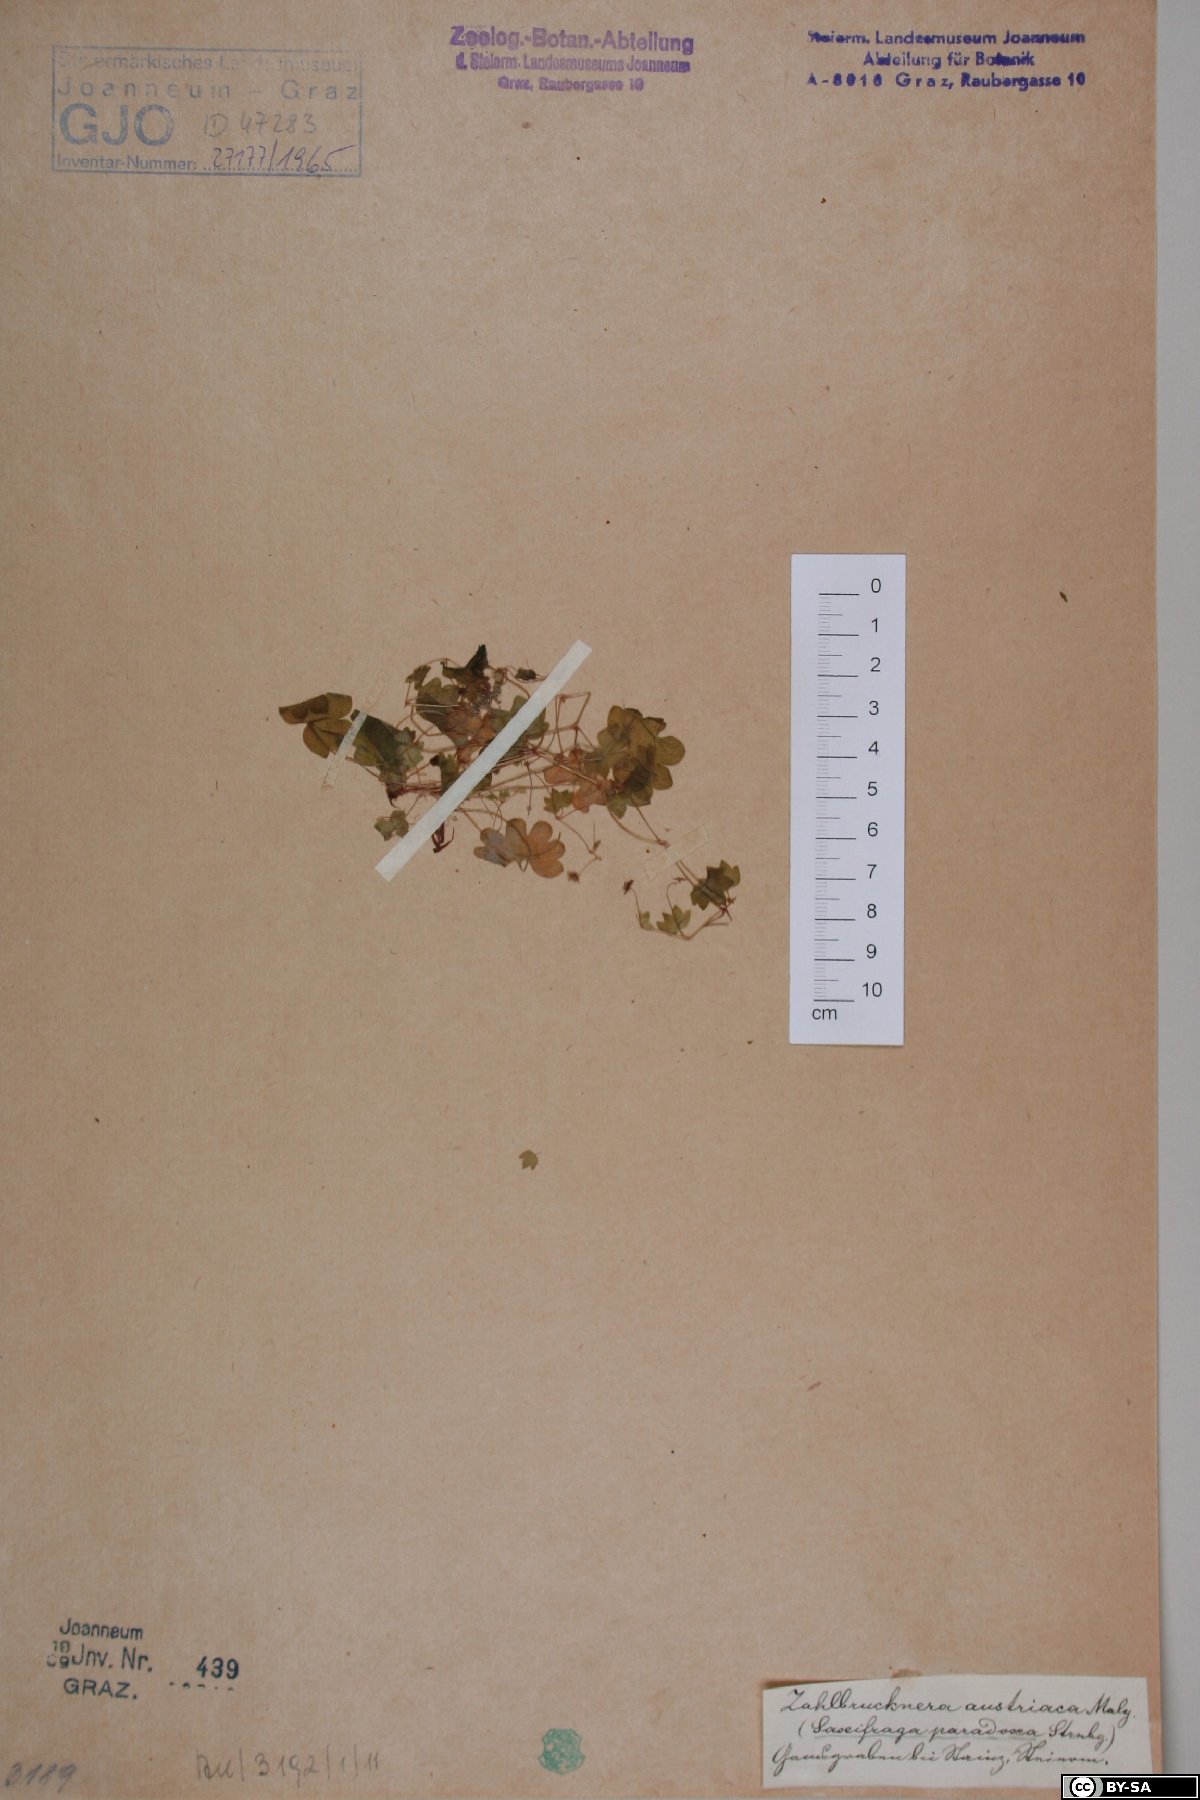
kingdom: Plantae
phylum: Tracheophyta
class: Magnoliopsida
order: Saxifragales
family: Saxifragaceae
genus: Saxifraga
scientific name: Saxifraga paradoxa
